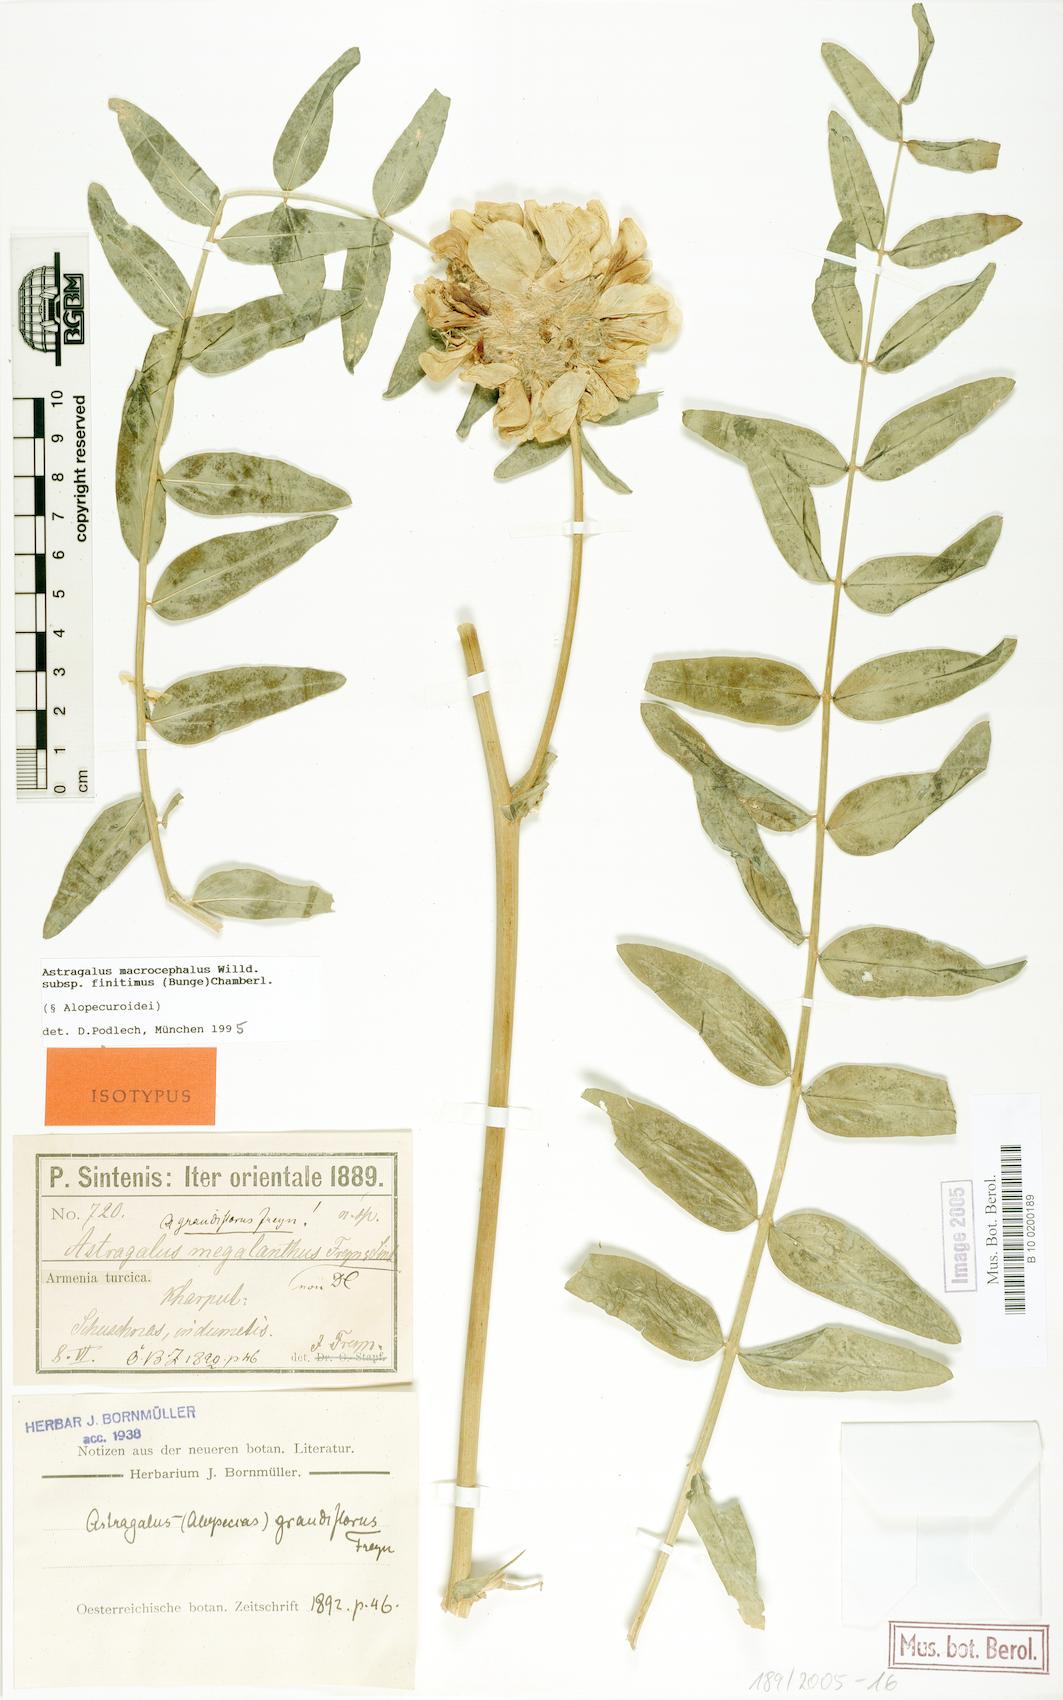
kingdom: Plantae
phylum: Tracheophyta
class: Magnoliopsida
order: Fabales
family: Fabaceae
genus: Astragalus
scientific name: Astragalus macrocephalus
